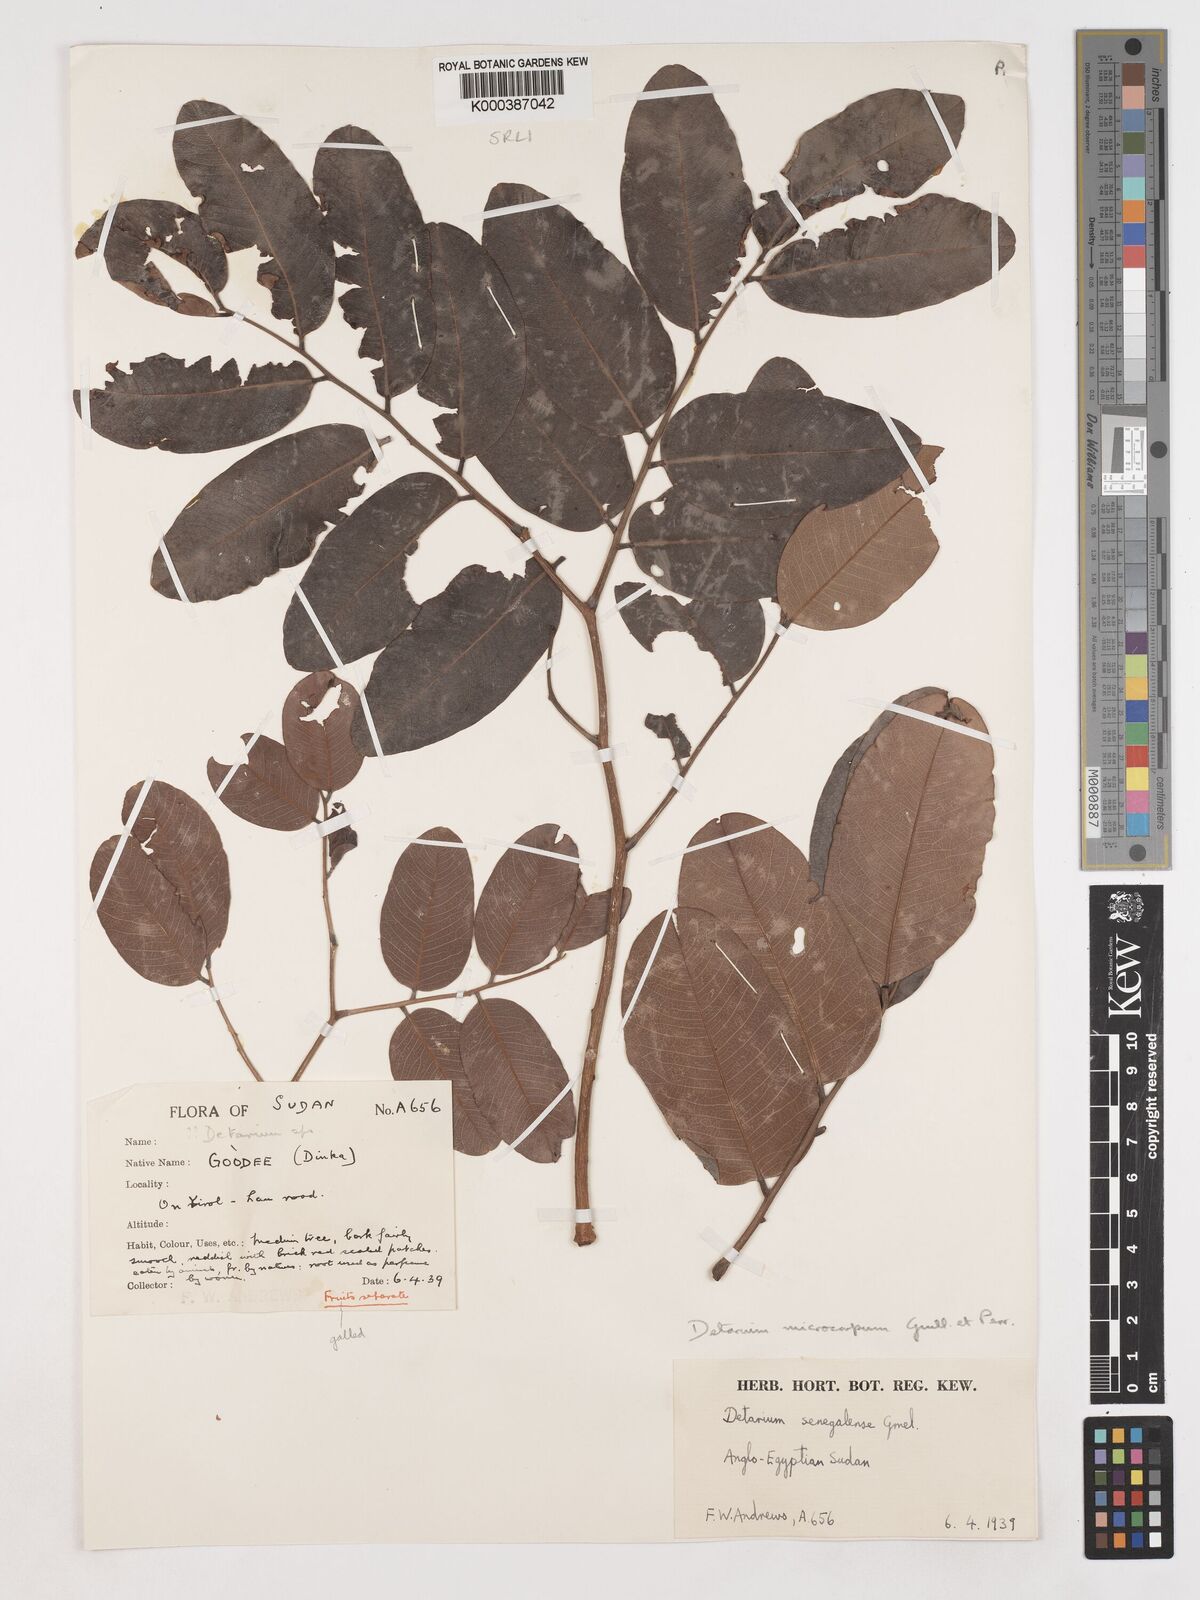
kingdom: Plantae
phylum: Tracheophyta
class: Magnoliopsida
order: Fabales
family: Fabaceae
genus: Detarium
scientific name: Detarium microcarpum
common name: Sweet dattock
